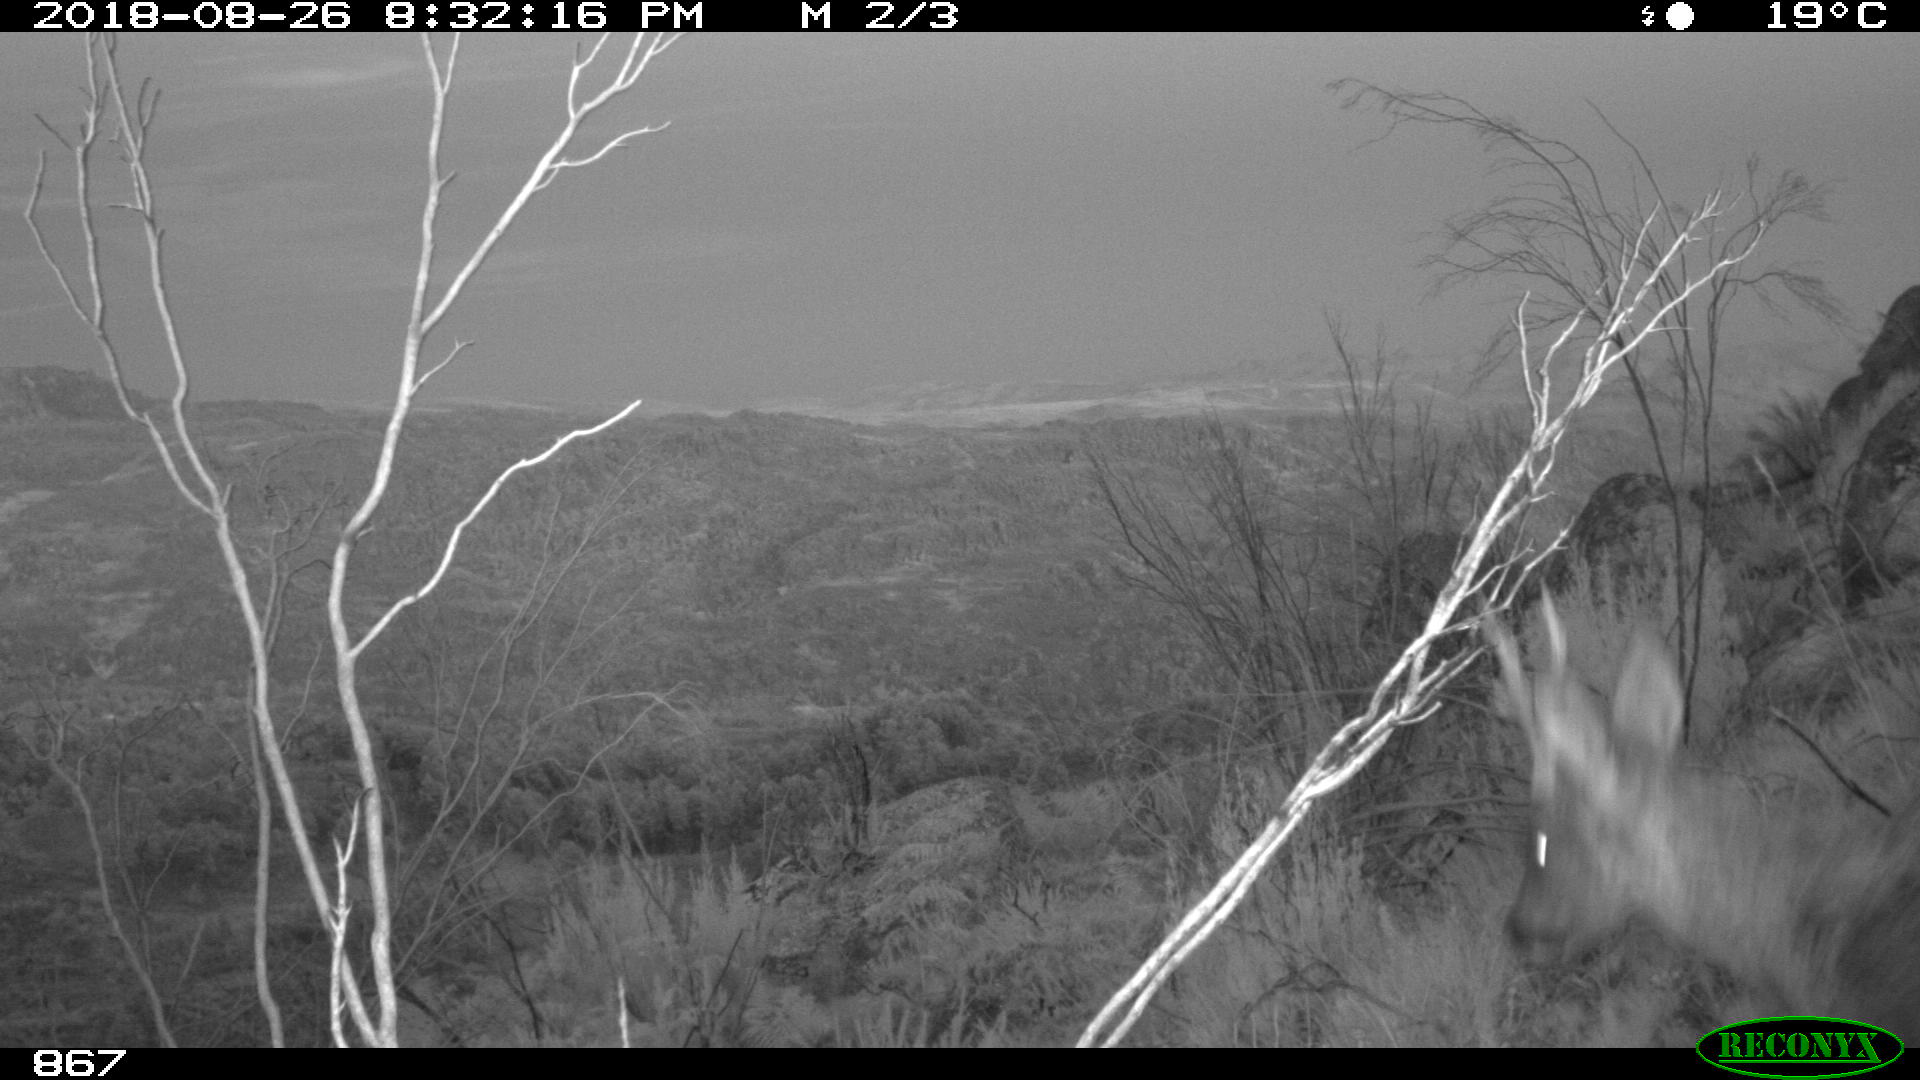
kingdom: Animalia
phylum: Chordata
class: Mammalia
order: Artiodactyla
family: Cervidae
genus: Capreolus
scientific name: Capreolus capreolus
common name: Western roe deer
